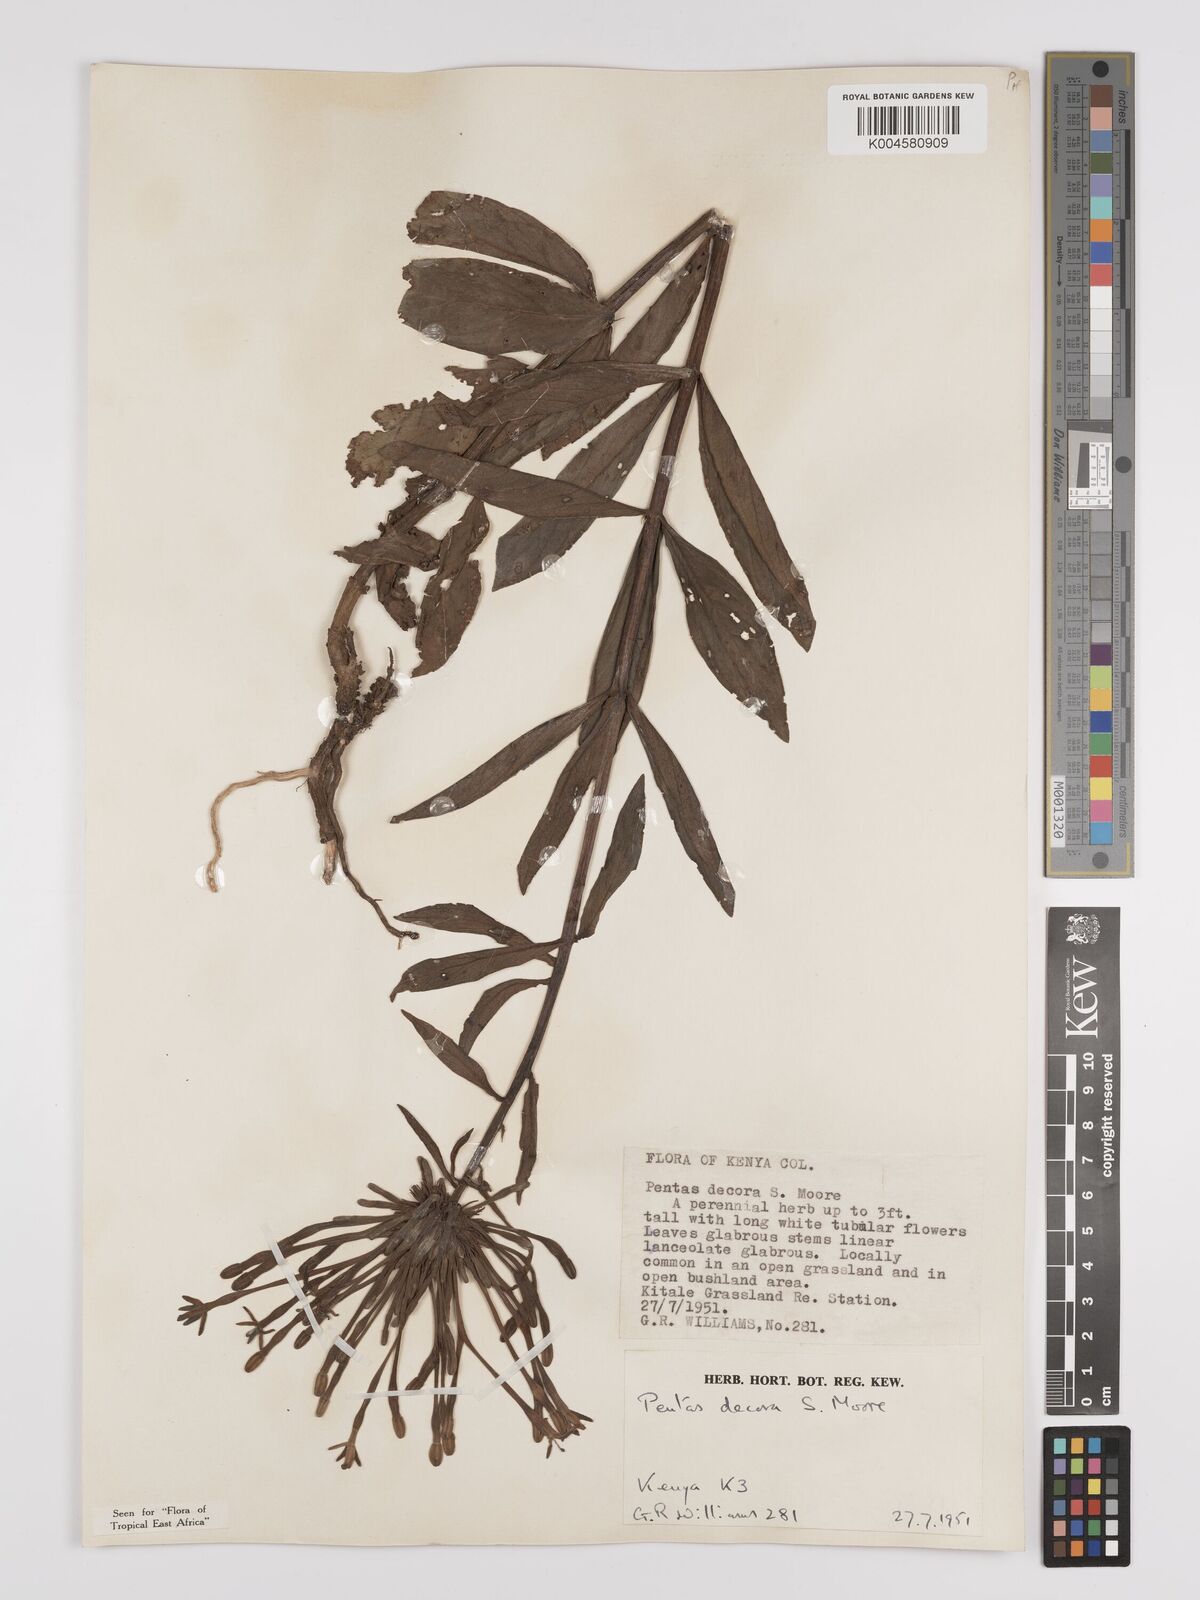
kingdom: Plantae
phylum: Tracheophyta
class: Magnoliopsida
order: Gentianales
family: Rubiaceae
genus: Dolichopentas
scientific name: Dolichopentas decora
